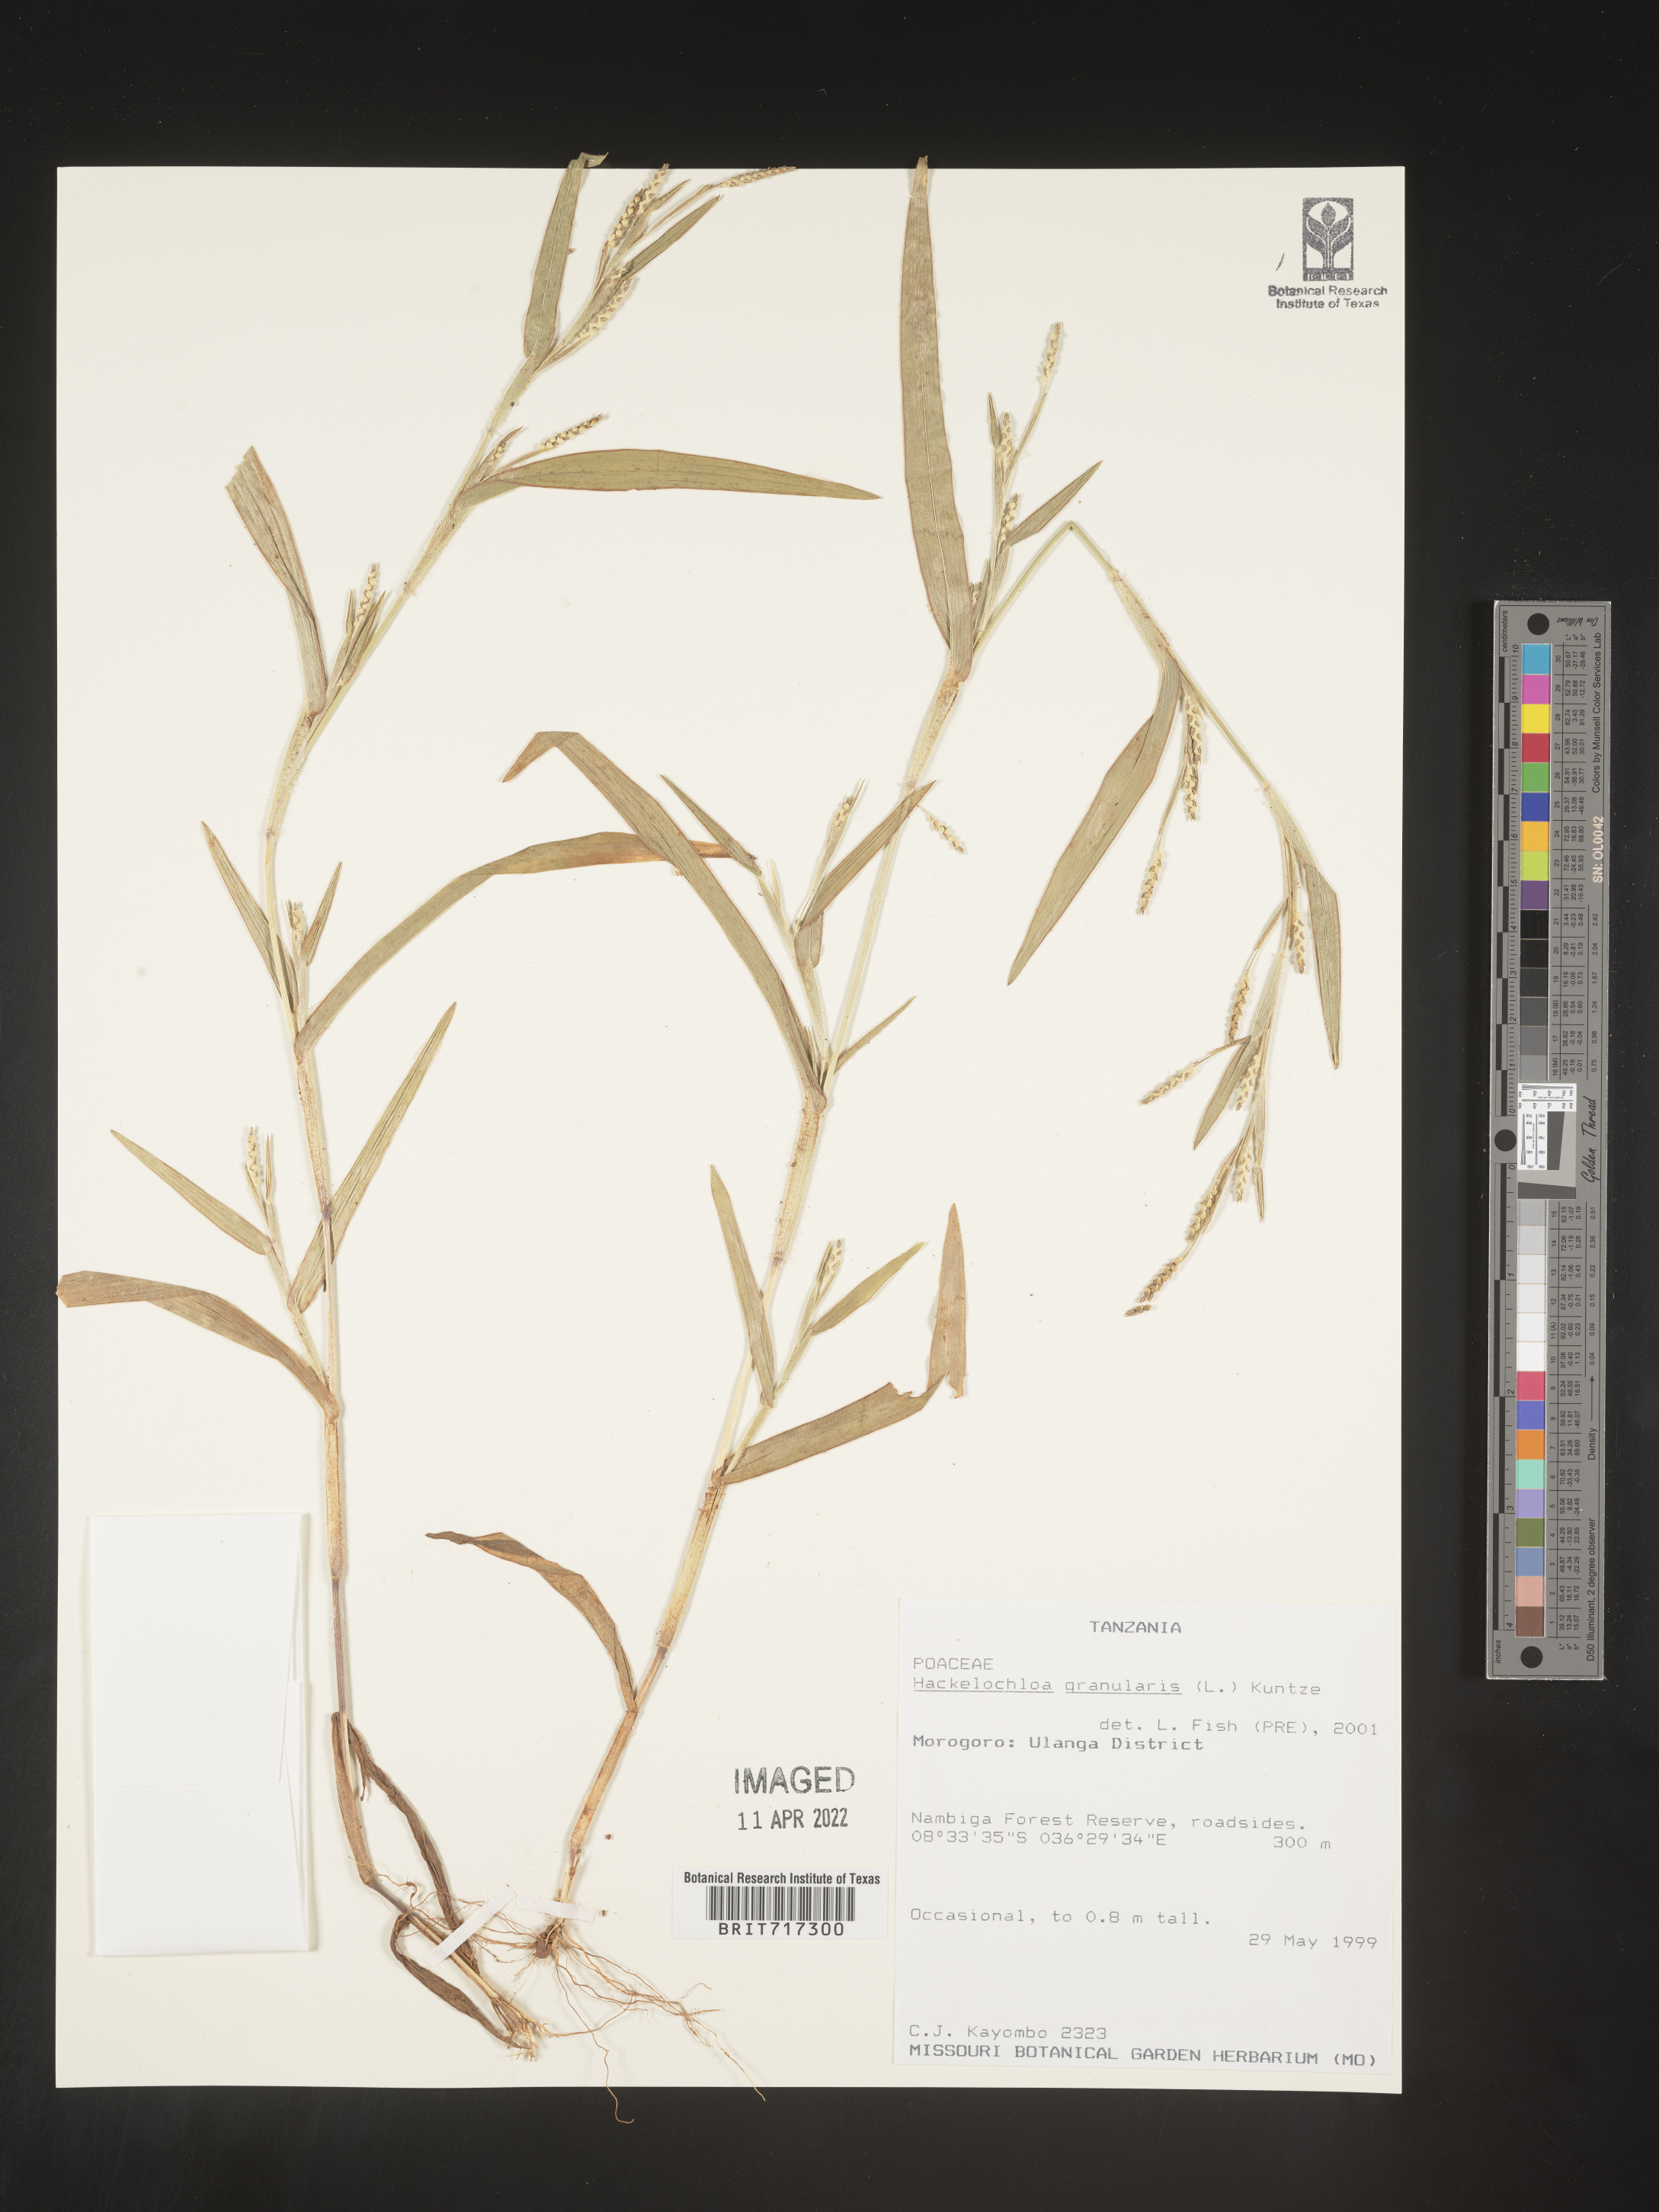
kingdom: Plantae
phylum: Tracheophyta
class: Liliopsida
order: Poales
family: Poaceae
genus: Hackelochloa
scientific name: Hackelochloa
